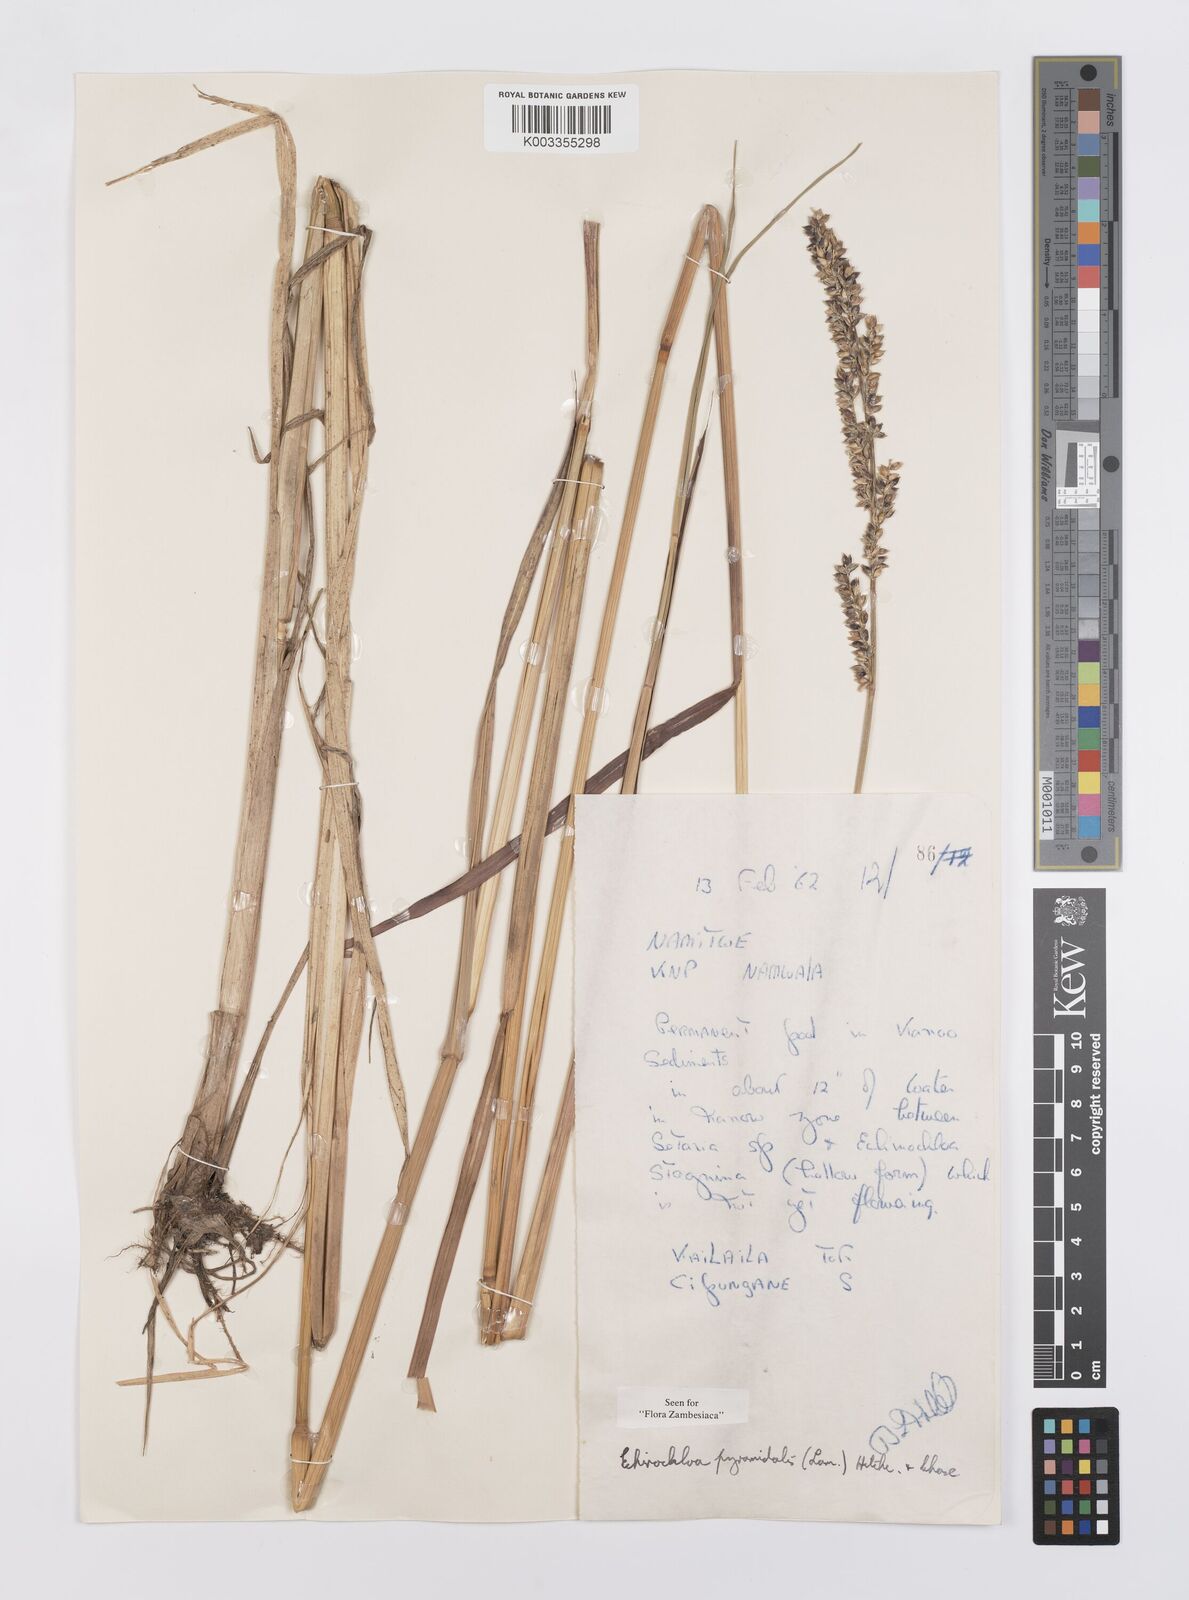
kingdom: Plantae
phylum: Tracheophyta
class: Liliopsida
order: Poales
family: Poaceae
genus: Echinochloa
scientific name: Echinochloa pyramidalis
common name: Antelope grass
